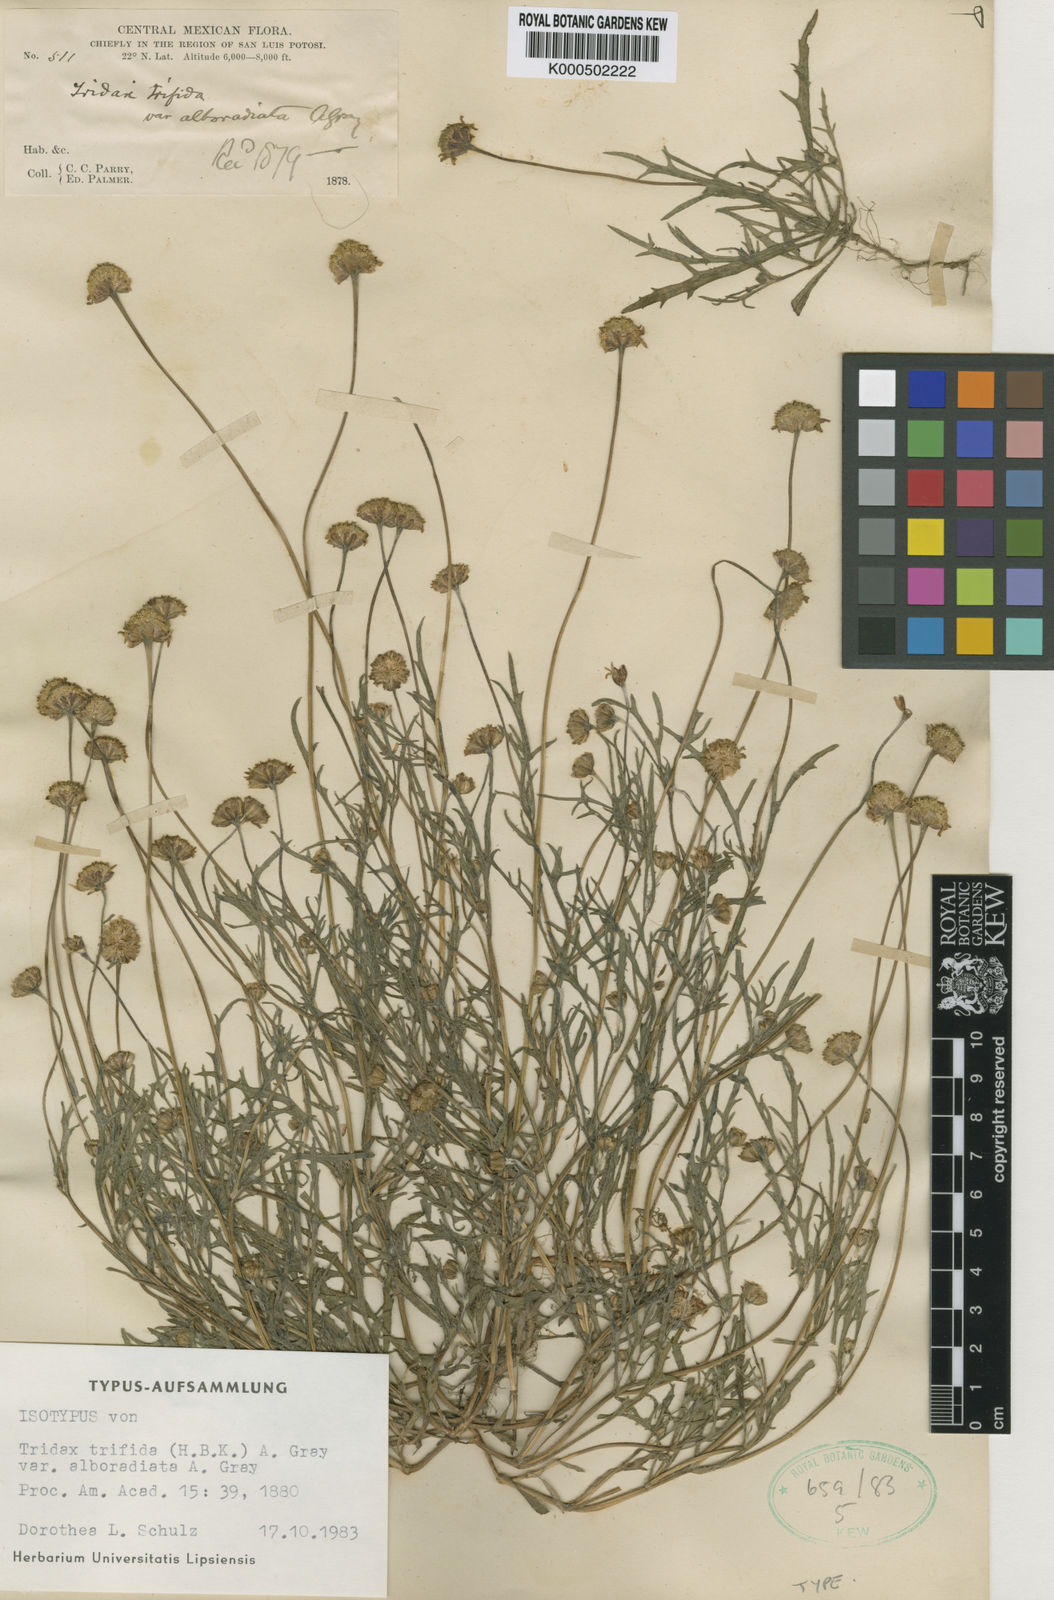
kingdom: Plantae
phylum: Tracheophyta
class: Magnoliopsida
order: Asterales
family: Asteraceae
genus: Tridax
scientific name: Tridax coronopifolia
